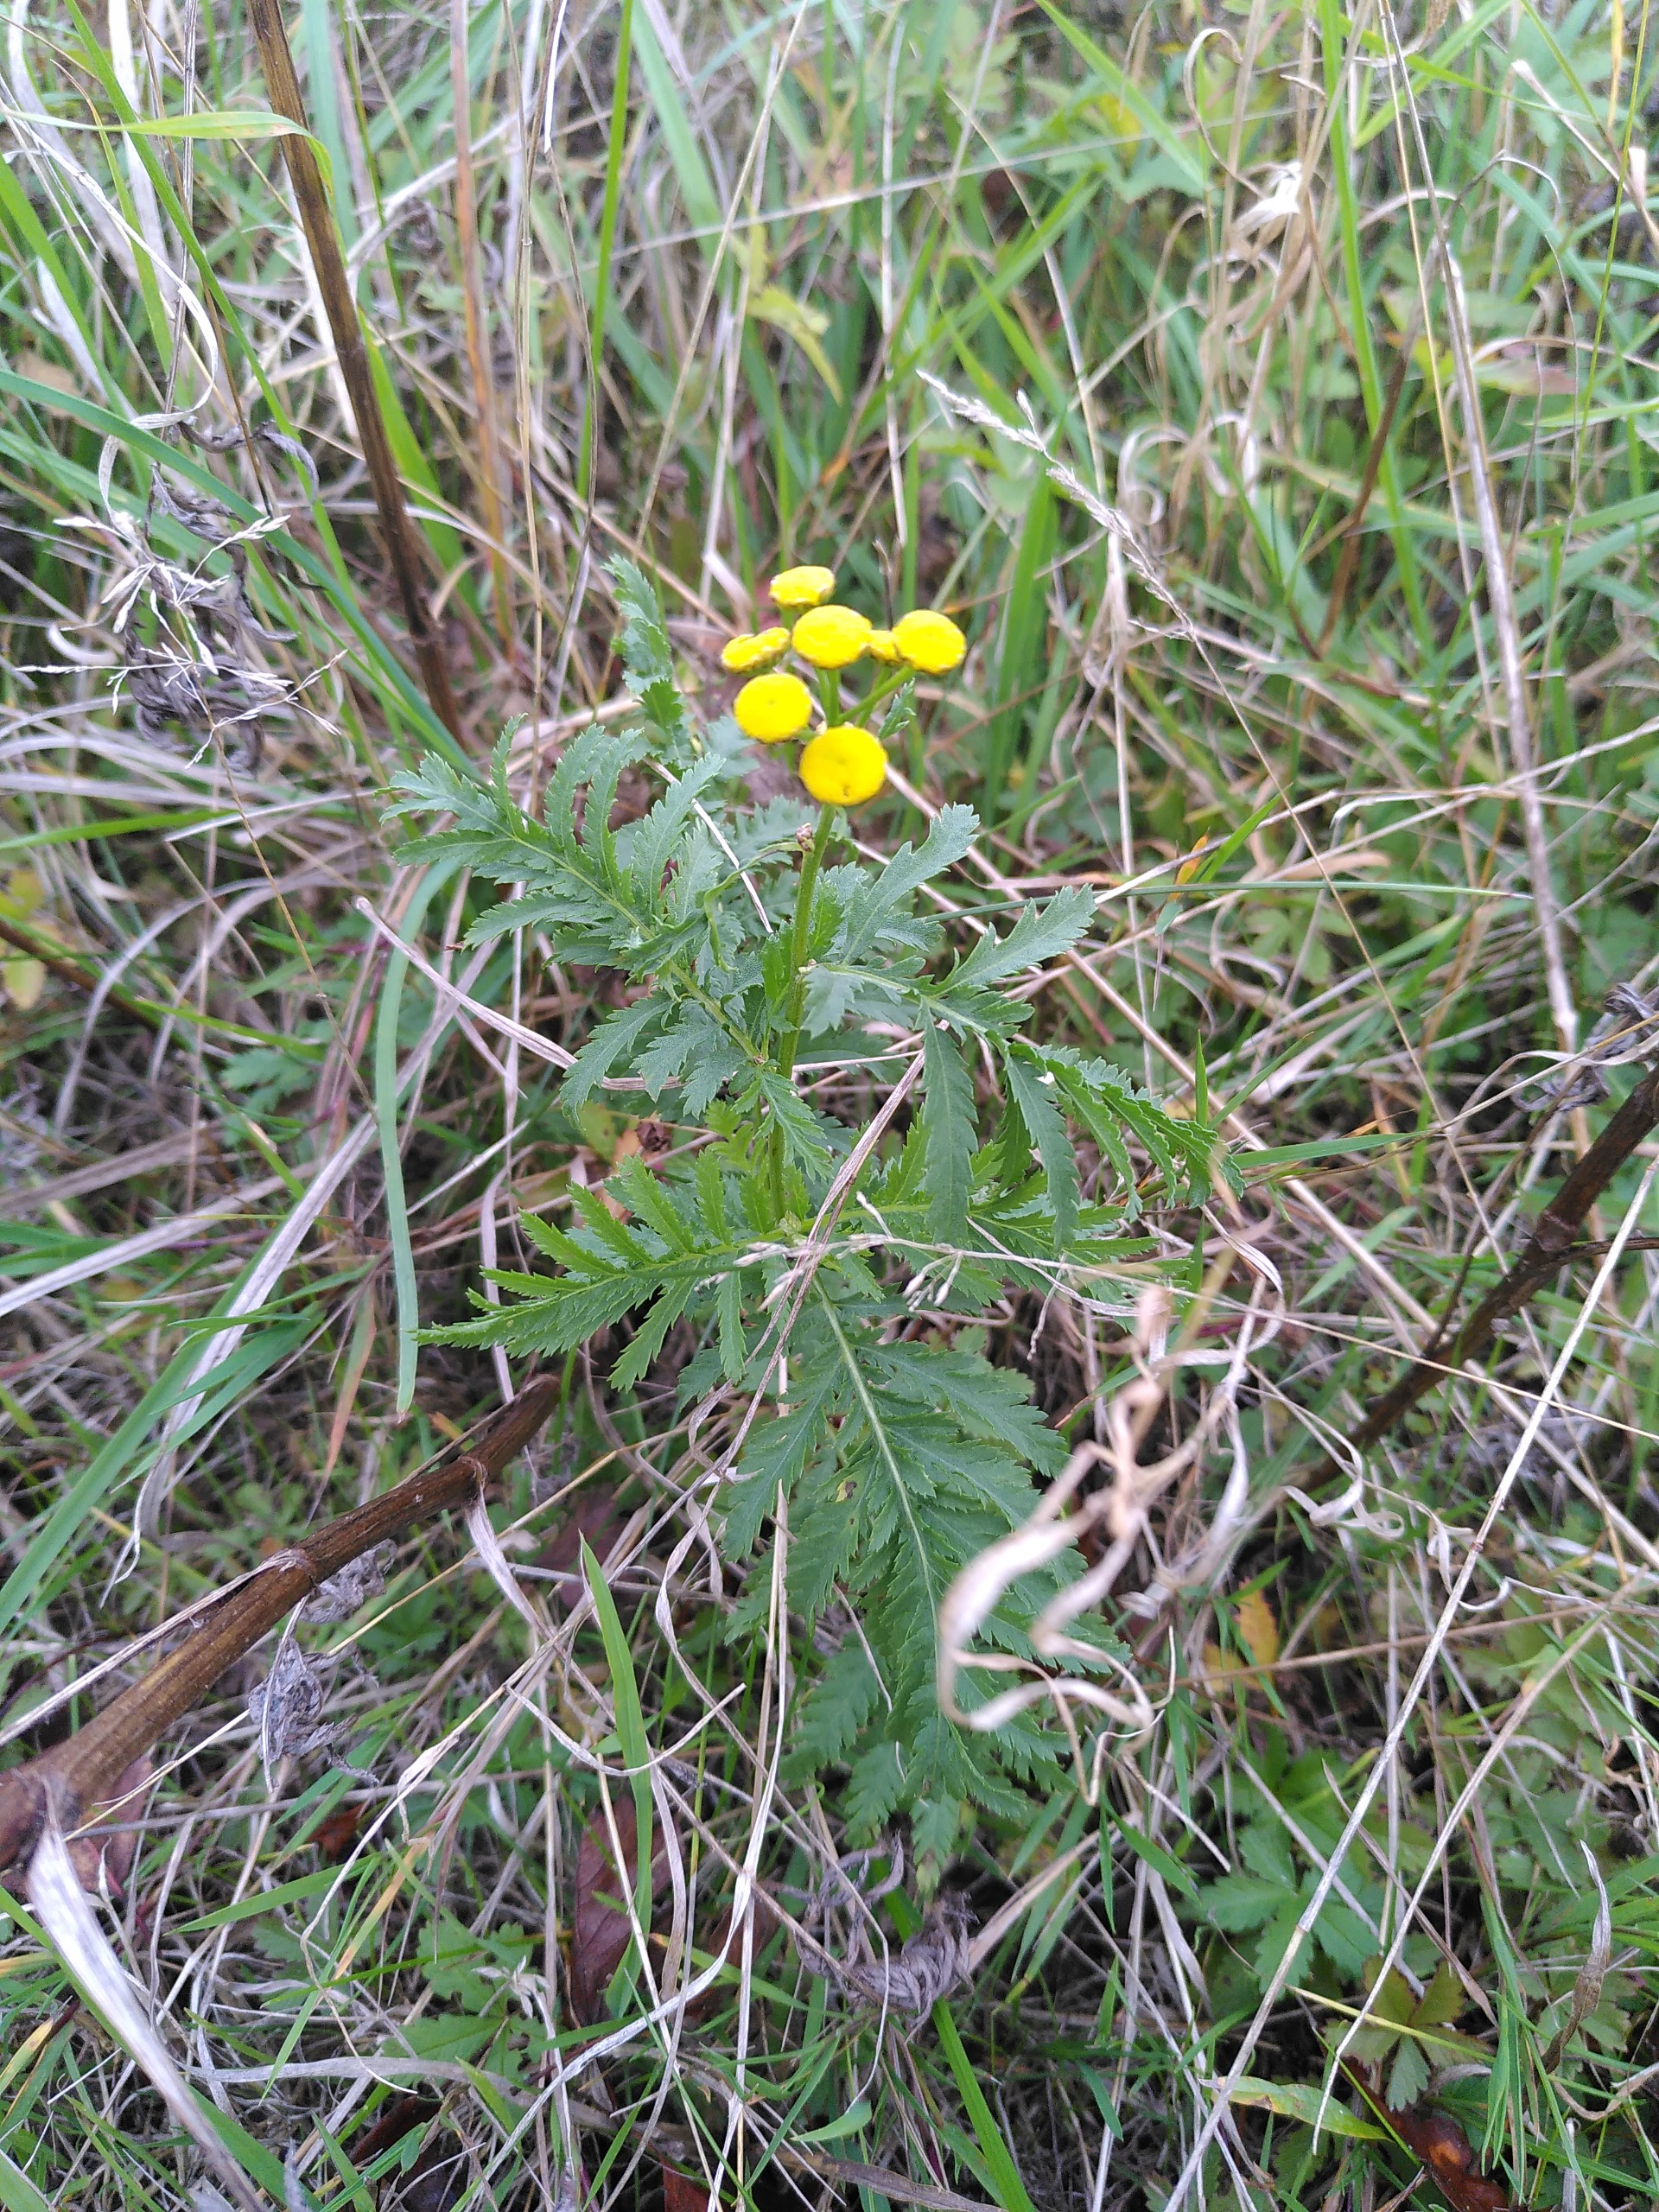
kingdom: Plantae
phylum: Tracheophyta
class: Magnoliopsida
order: Asterales
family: Asteraceae
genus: Tanacetum
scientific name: Tanacetum vulgare
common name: Rejnfan
